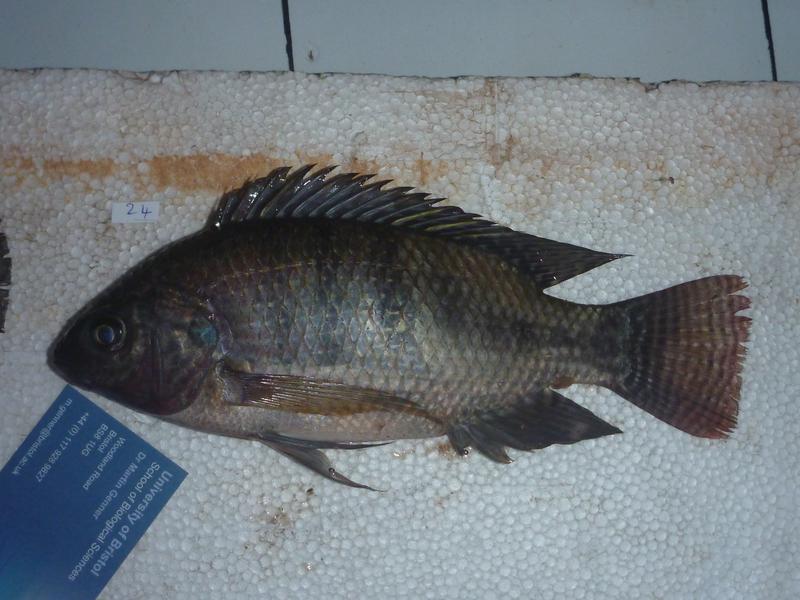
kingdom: Animalia
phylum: Chordata
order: Perciformes
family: Cichlidae
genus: Oreochromis
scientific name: Oreochromis niloticus
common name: Nile tilapia
